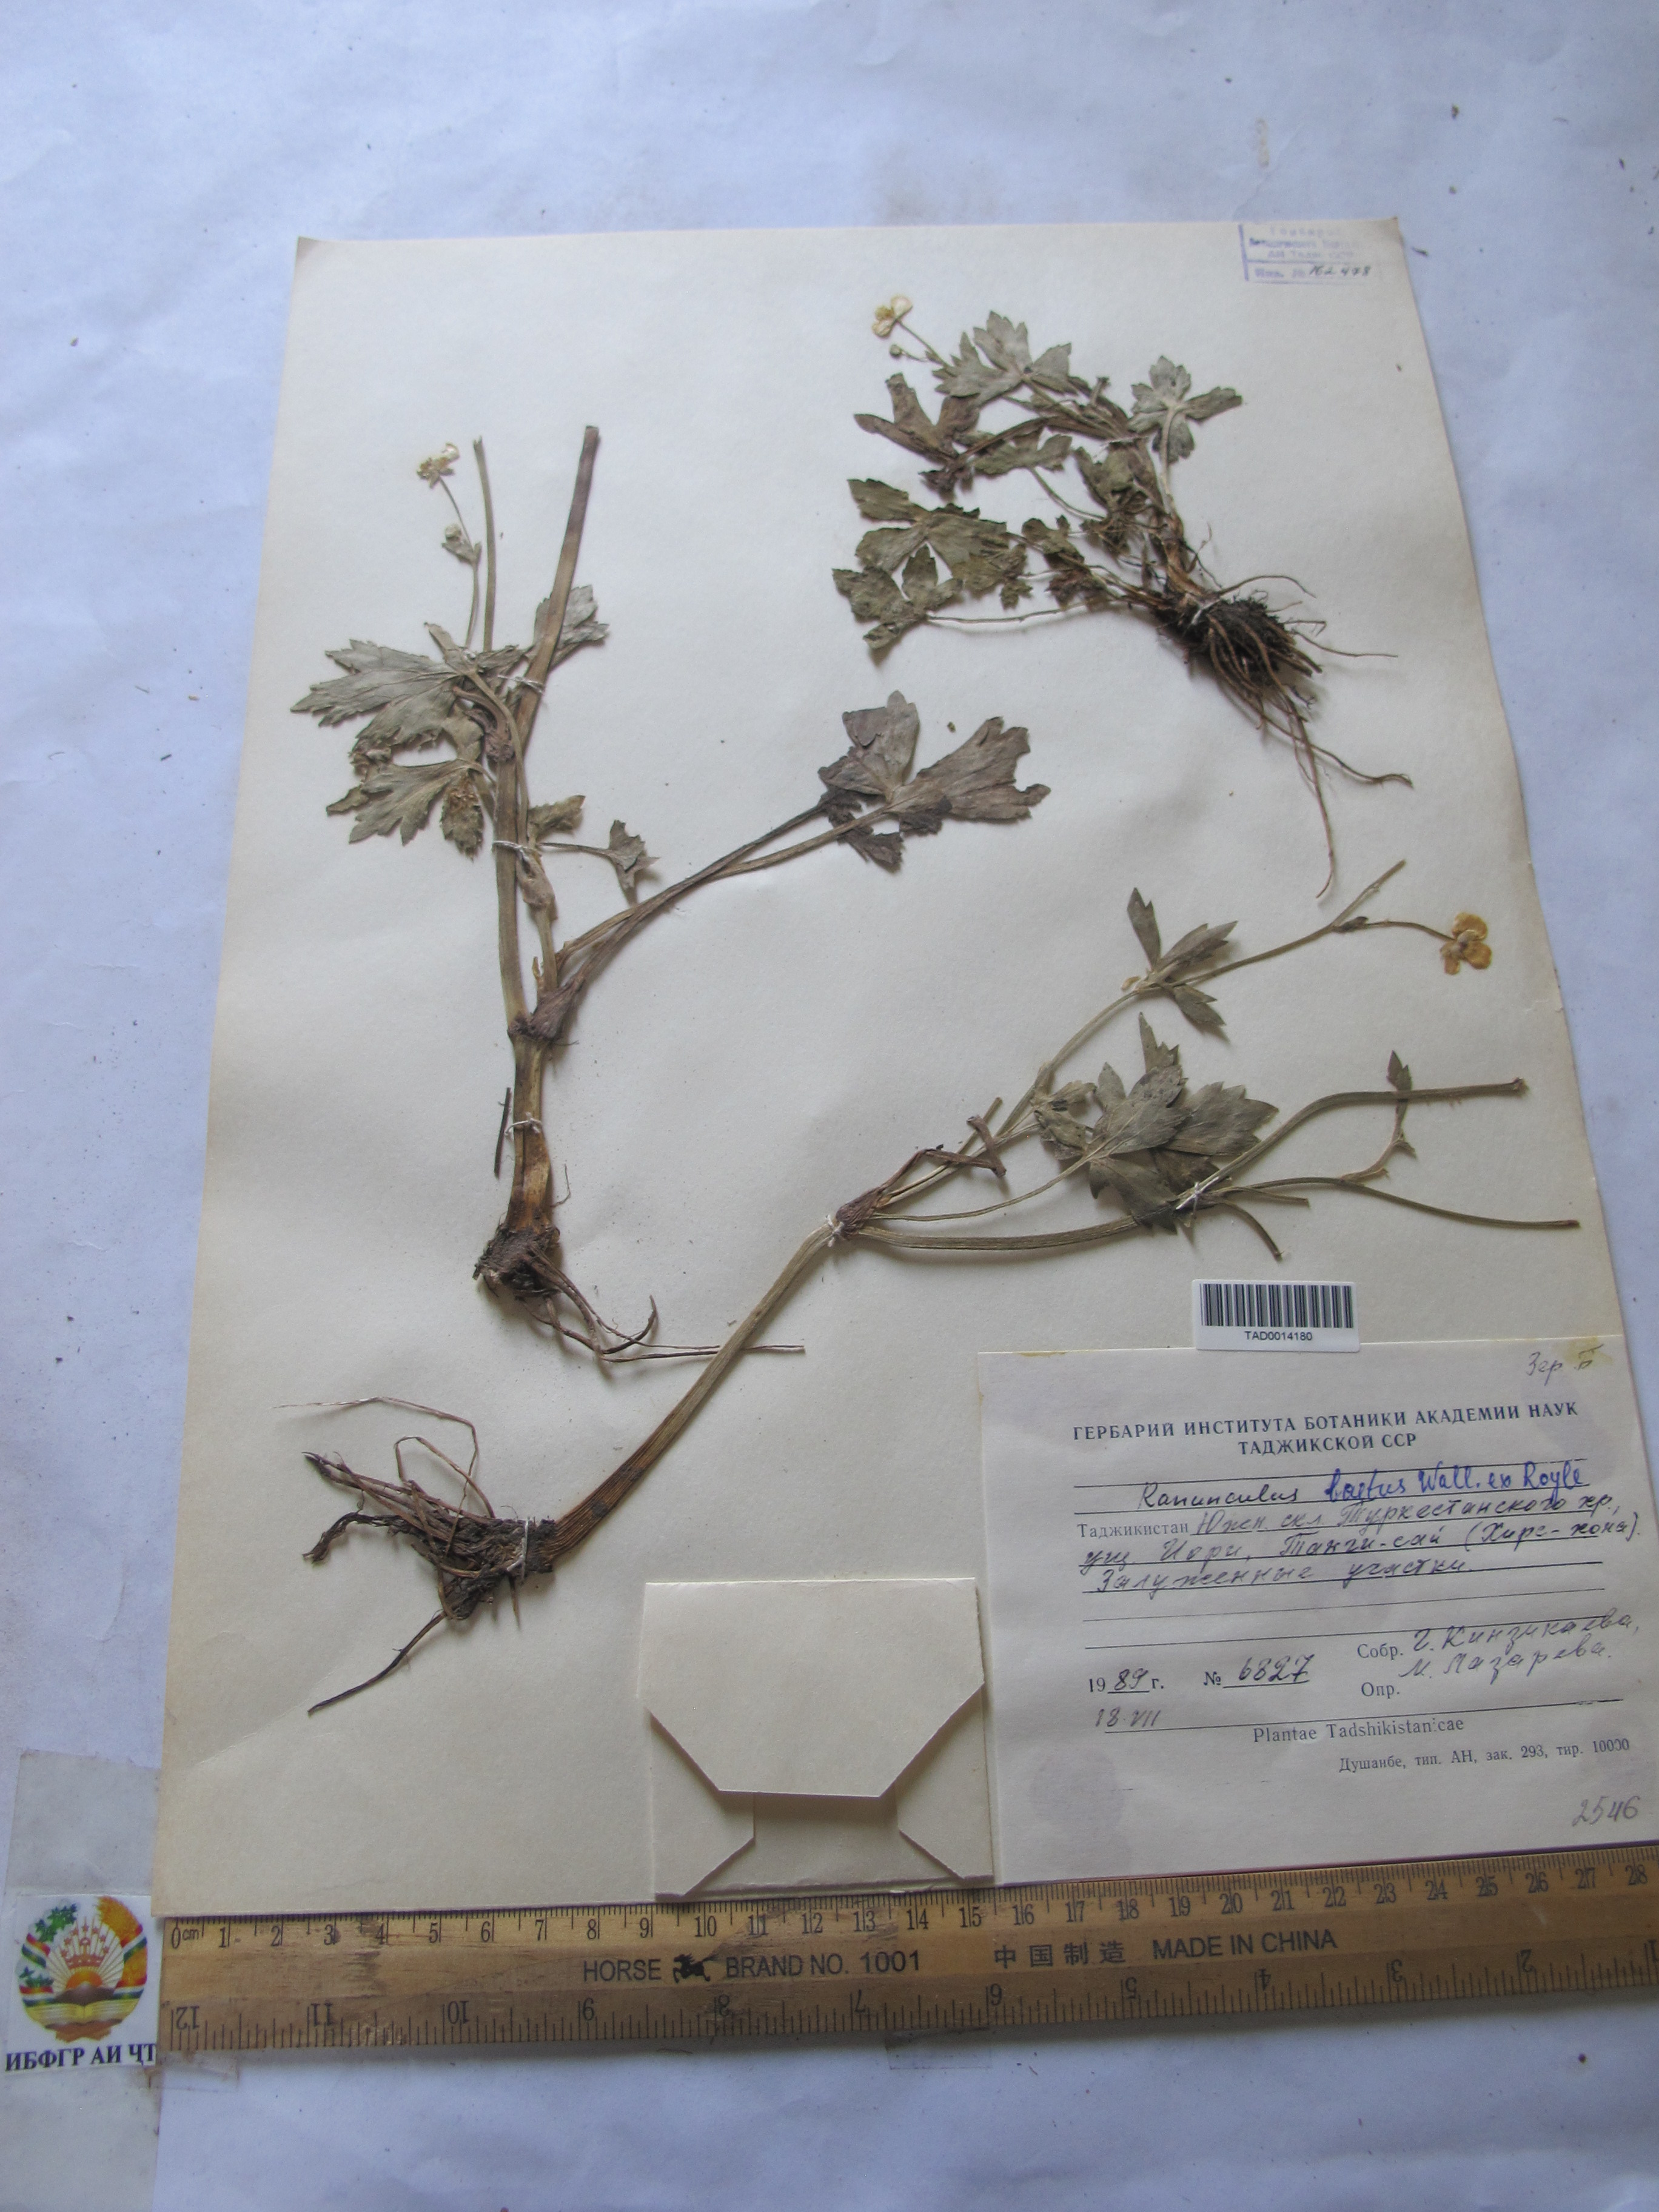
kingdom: Plantae
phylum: Tracheophyta
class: Magnoliopsida
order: Ranunculales
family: Ranunculaceae
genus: Ranunculus
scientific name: Ranunculus distans
